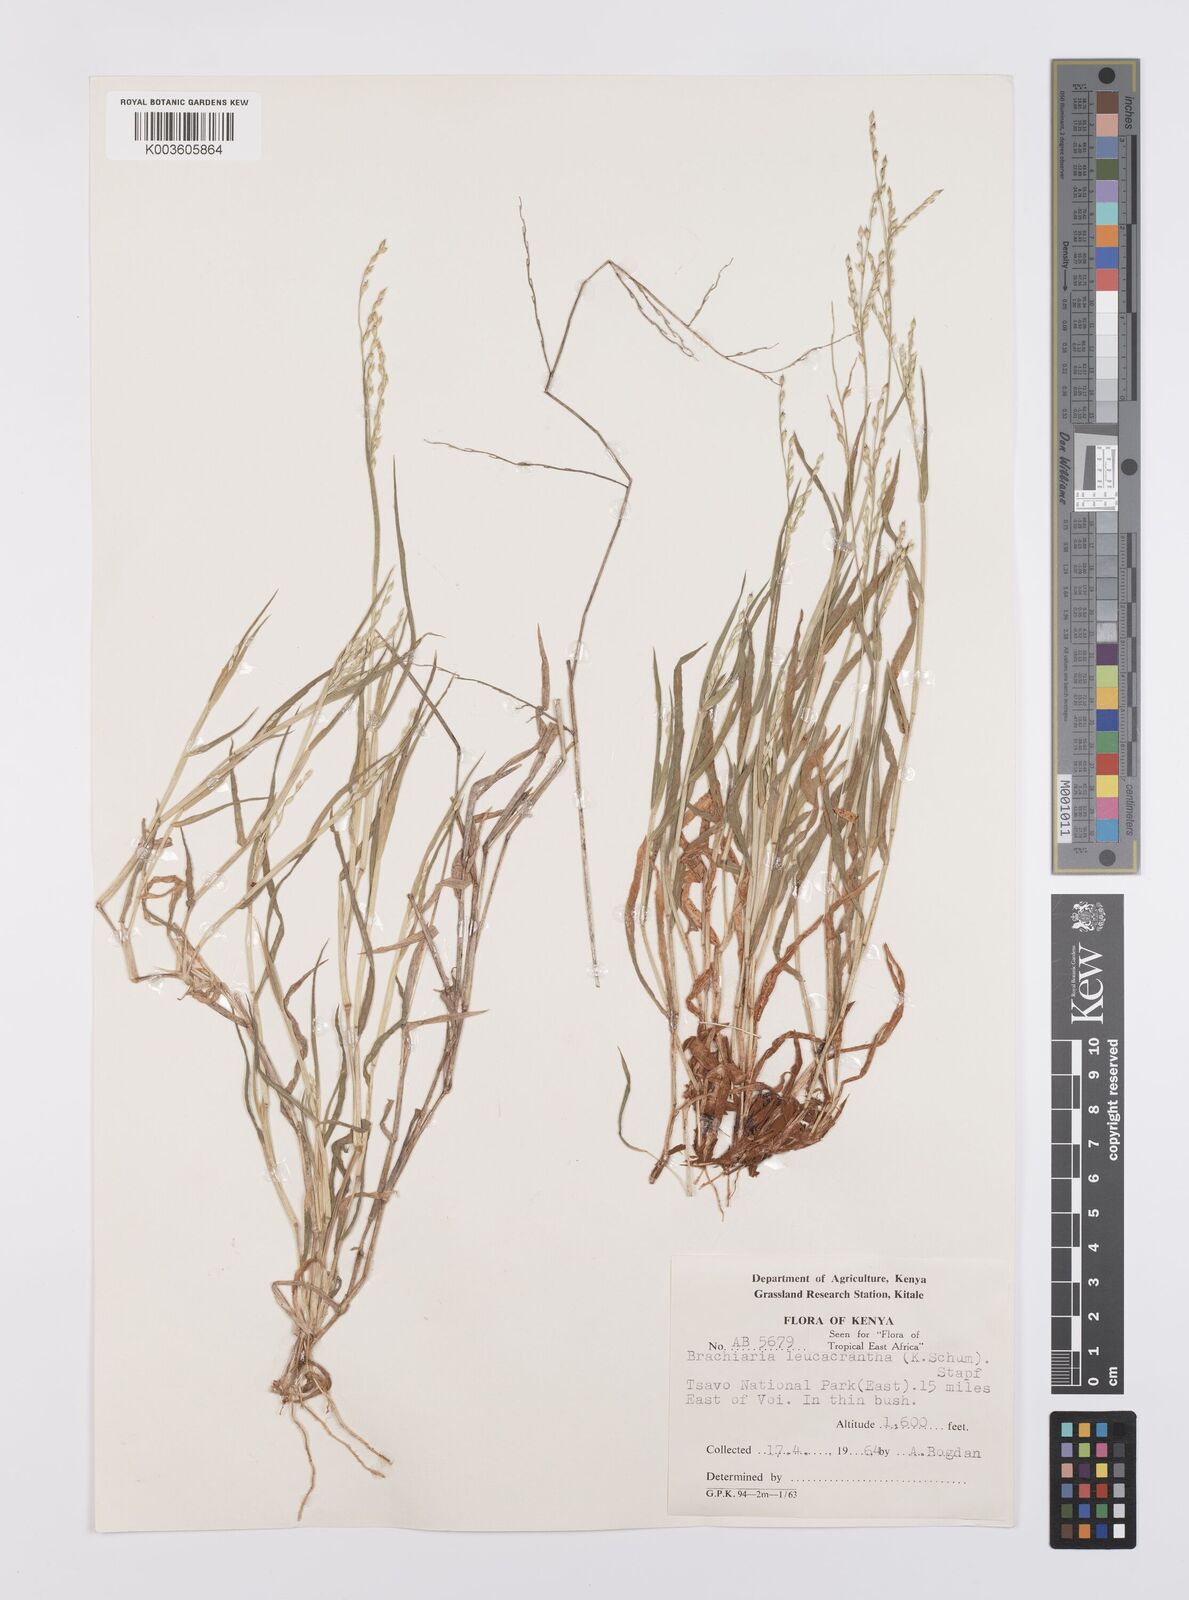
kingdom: Plantae
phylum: Tracheophyta
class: Liliopsida
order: Poales
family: Poaceae
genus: Urochloa
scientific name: Urochloa xantholeuca
